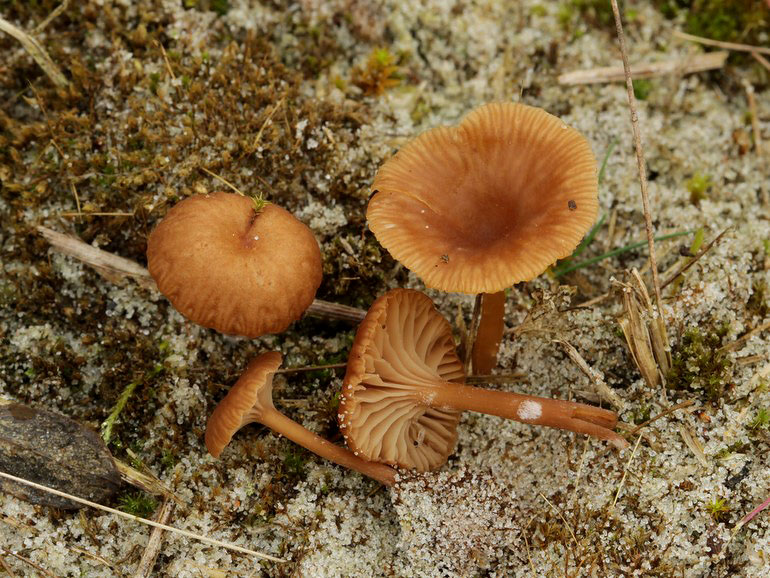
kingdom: Fungi
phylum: Basidiomycota
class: Agaricomycetes
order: Agaricales
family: Tricholomataceae
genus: Omphalina
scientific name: Omphalina pyxidata
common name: rødbrun navlehat
